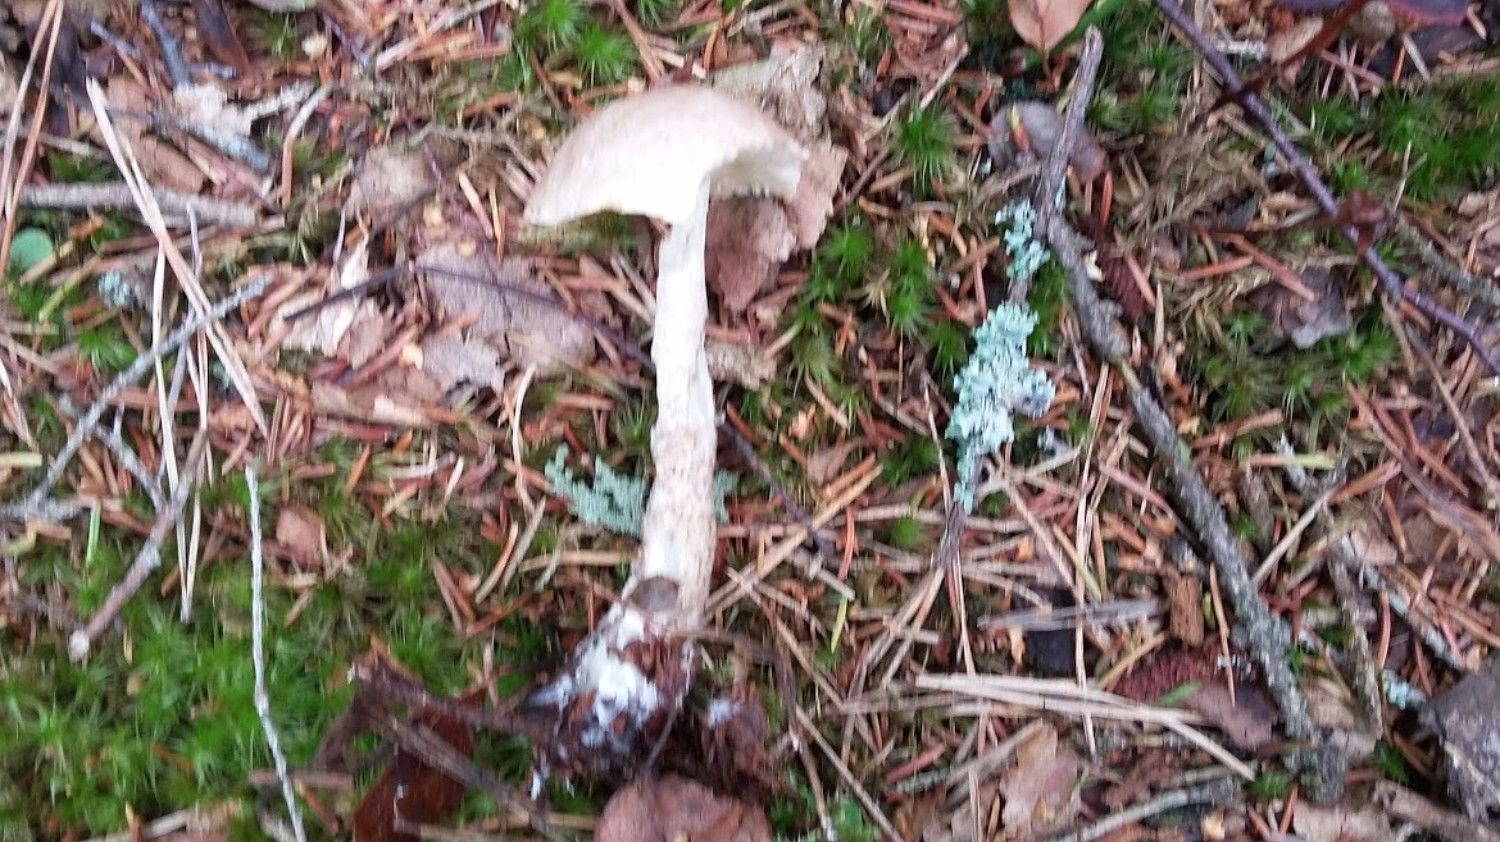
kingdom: Fungi
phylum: Basidiomycota
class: Agaricomycetes
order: Boletales
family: Boletaceae
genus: Leccinum
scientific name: Leccinum
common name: skælrørhat
